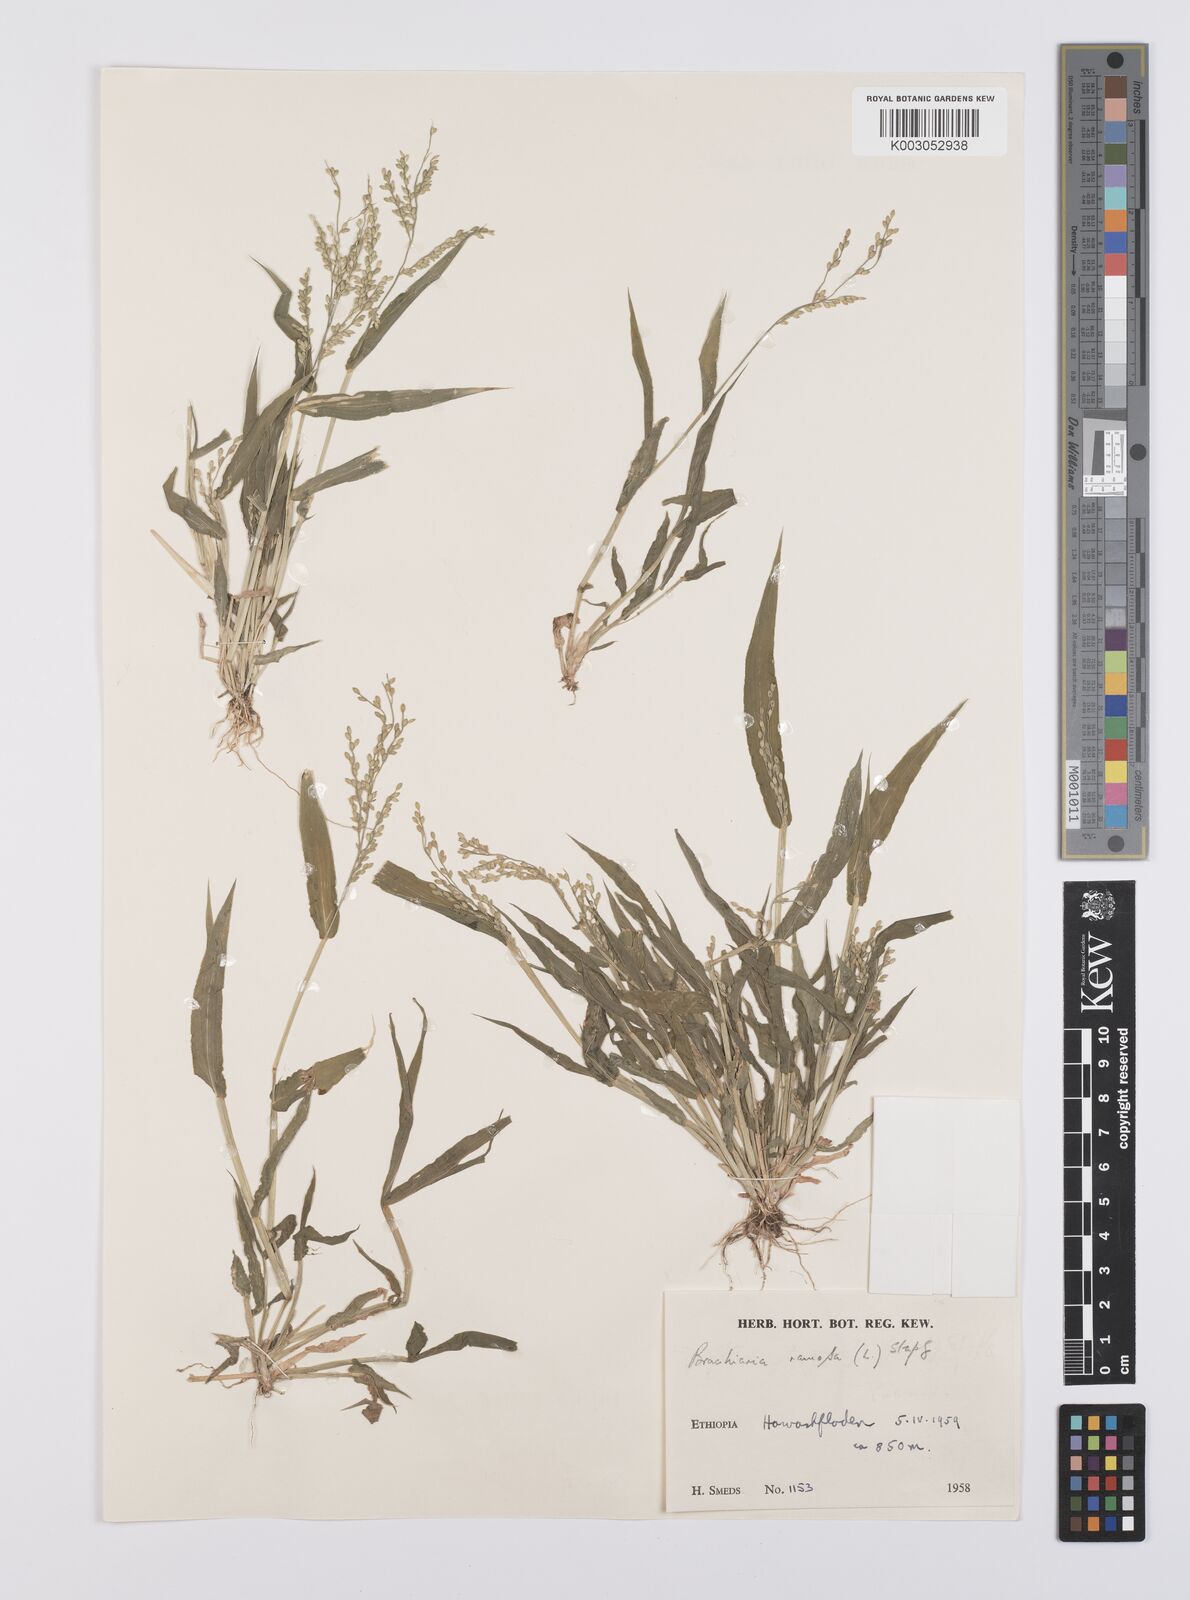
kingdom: Plantae
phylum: Tracheophyta
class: Liliopsida
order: Poales
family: Poaceae
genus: Urochloa
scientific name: Urochloa ramosa
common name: Browntop millet
